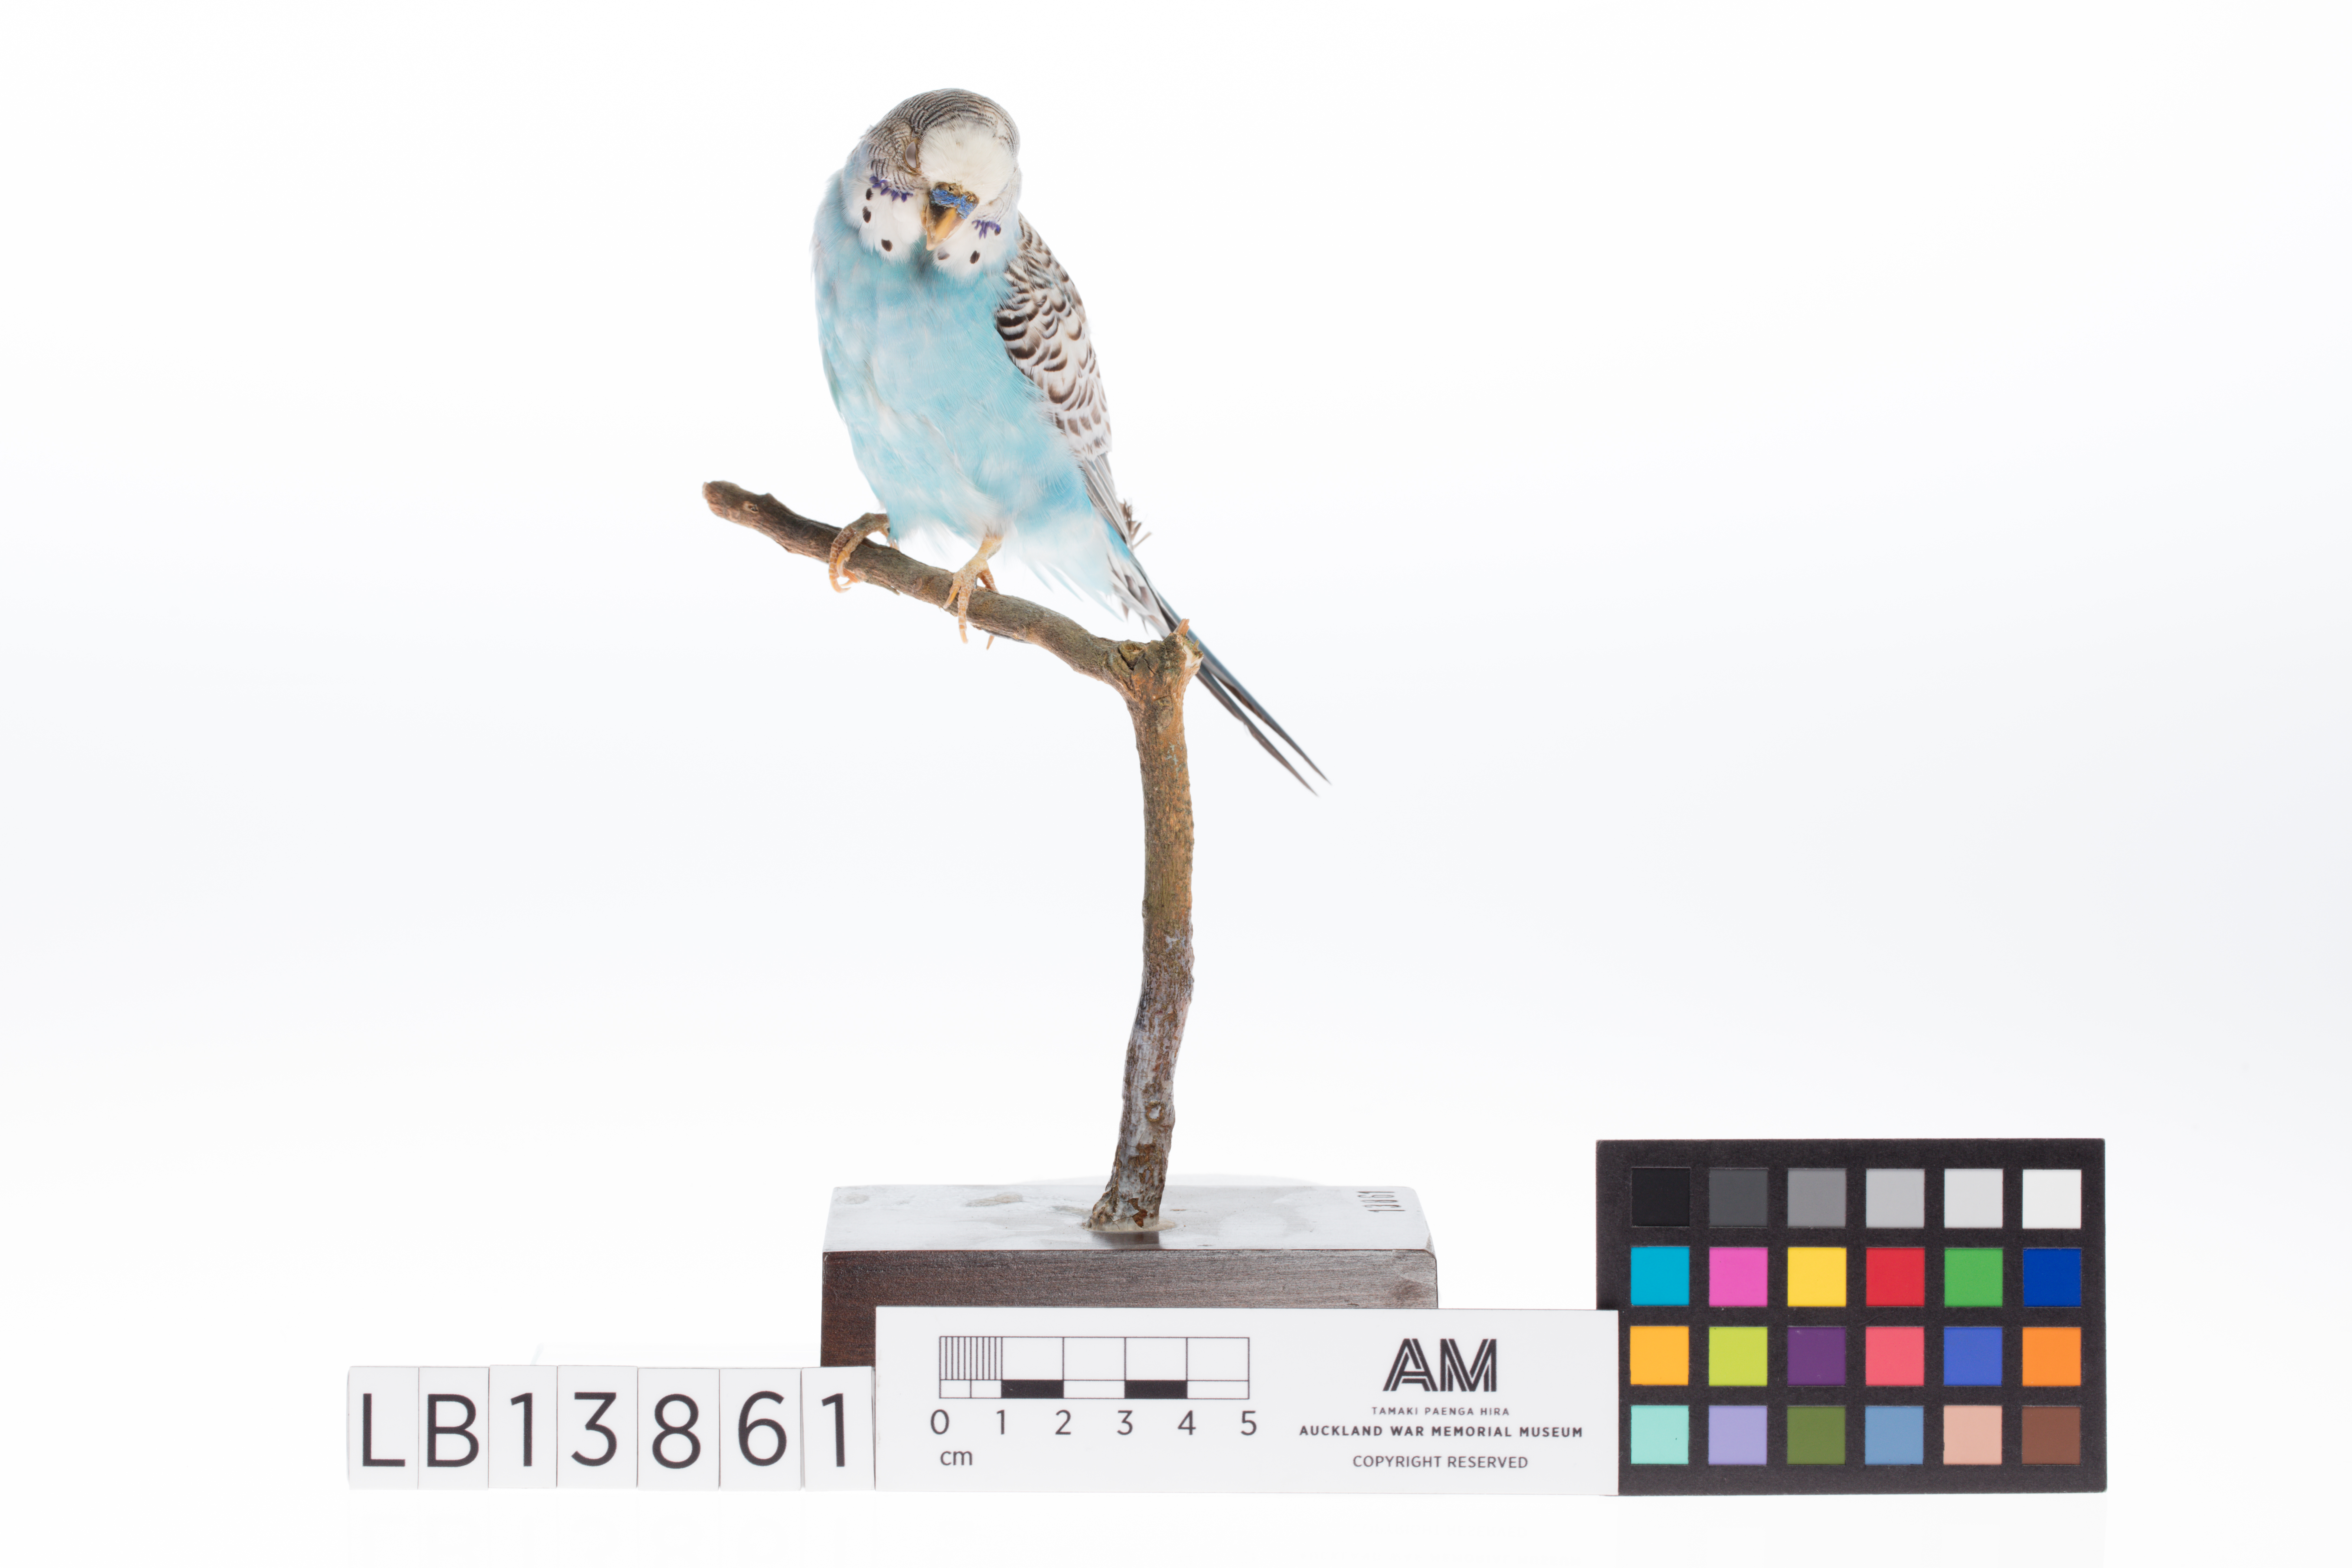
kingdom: Animalia
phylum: Chordata
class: Aves
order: Psittaciformes
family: Psittacidae
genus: Melopsittacus
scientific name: Melopsittacus undulatus
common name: Budgerigar
